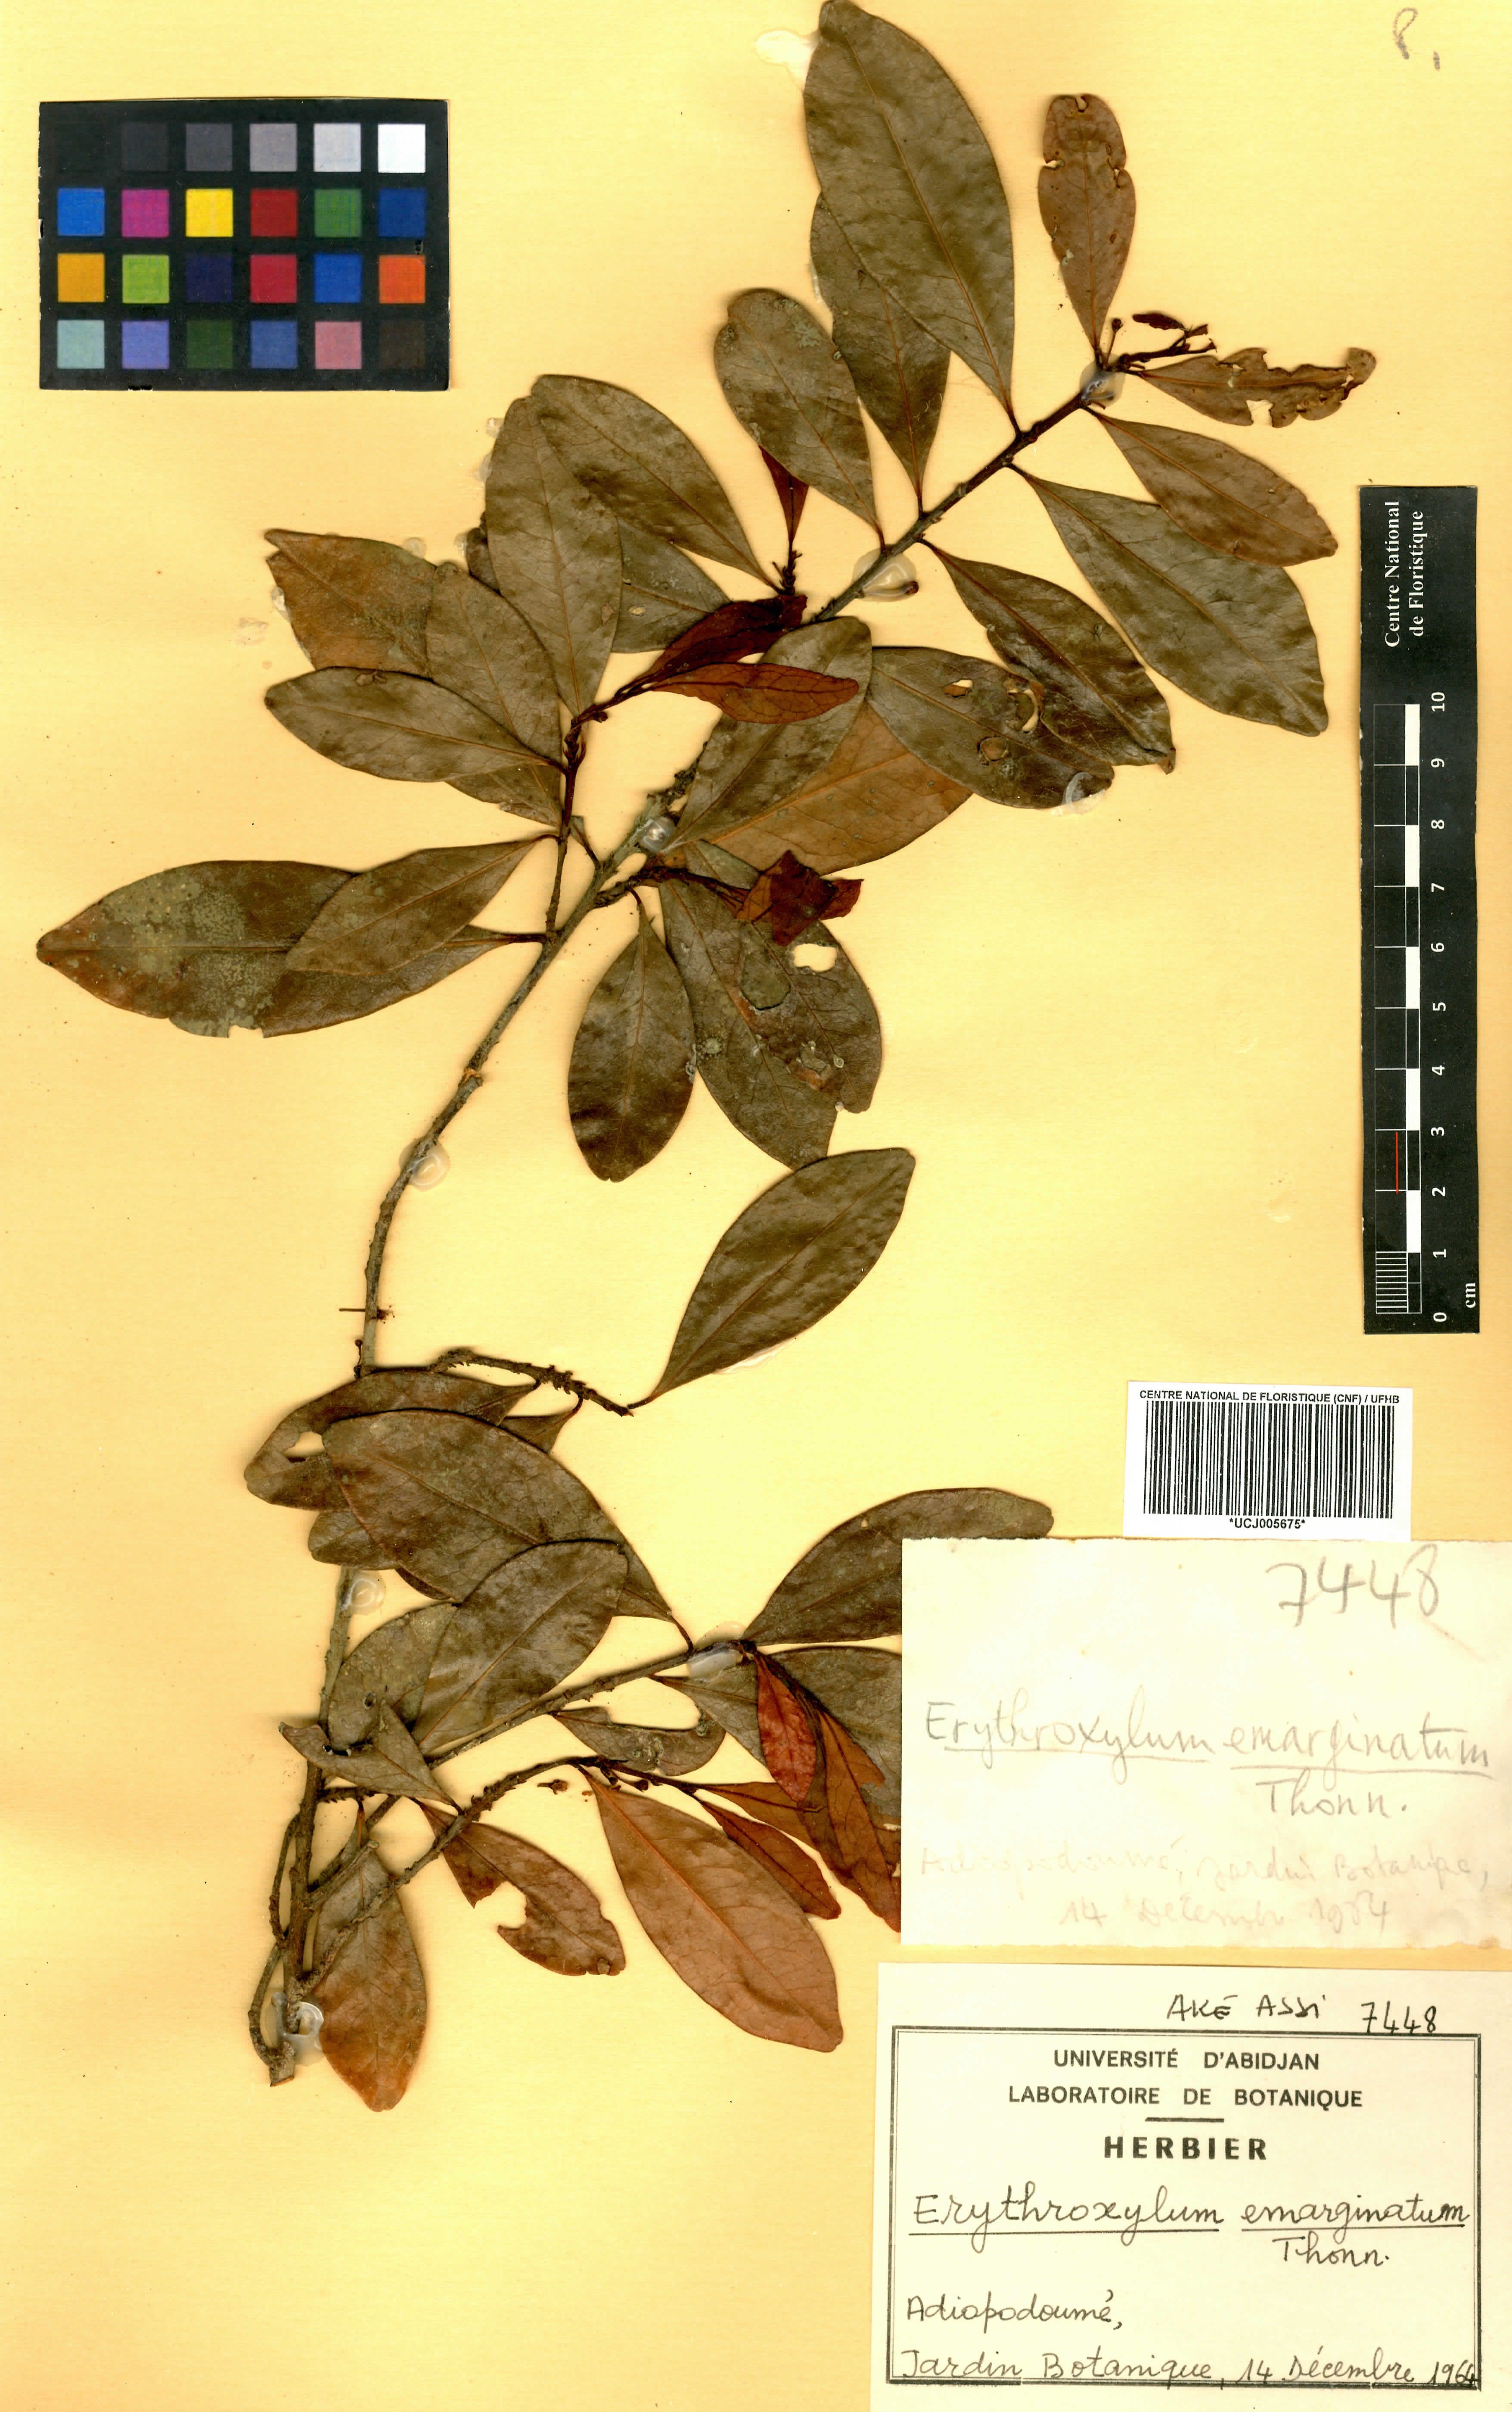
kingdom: Plantae
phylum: Tracheophyta
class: Magnoliopsida
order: Malpighiales
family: Erythroxylaceae
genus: Erythroxylum
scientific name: Erythroxylum emarginatum
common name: African coca-tree
